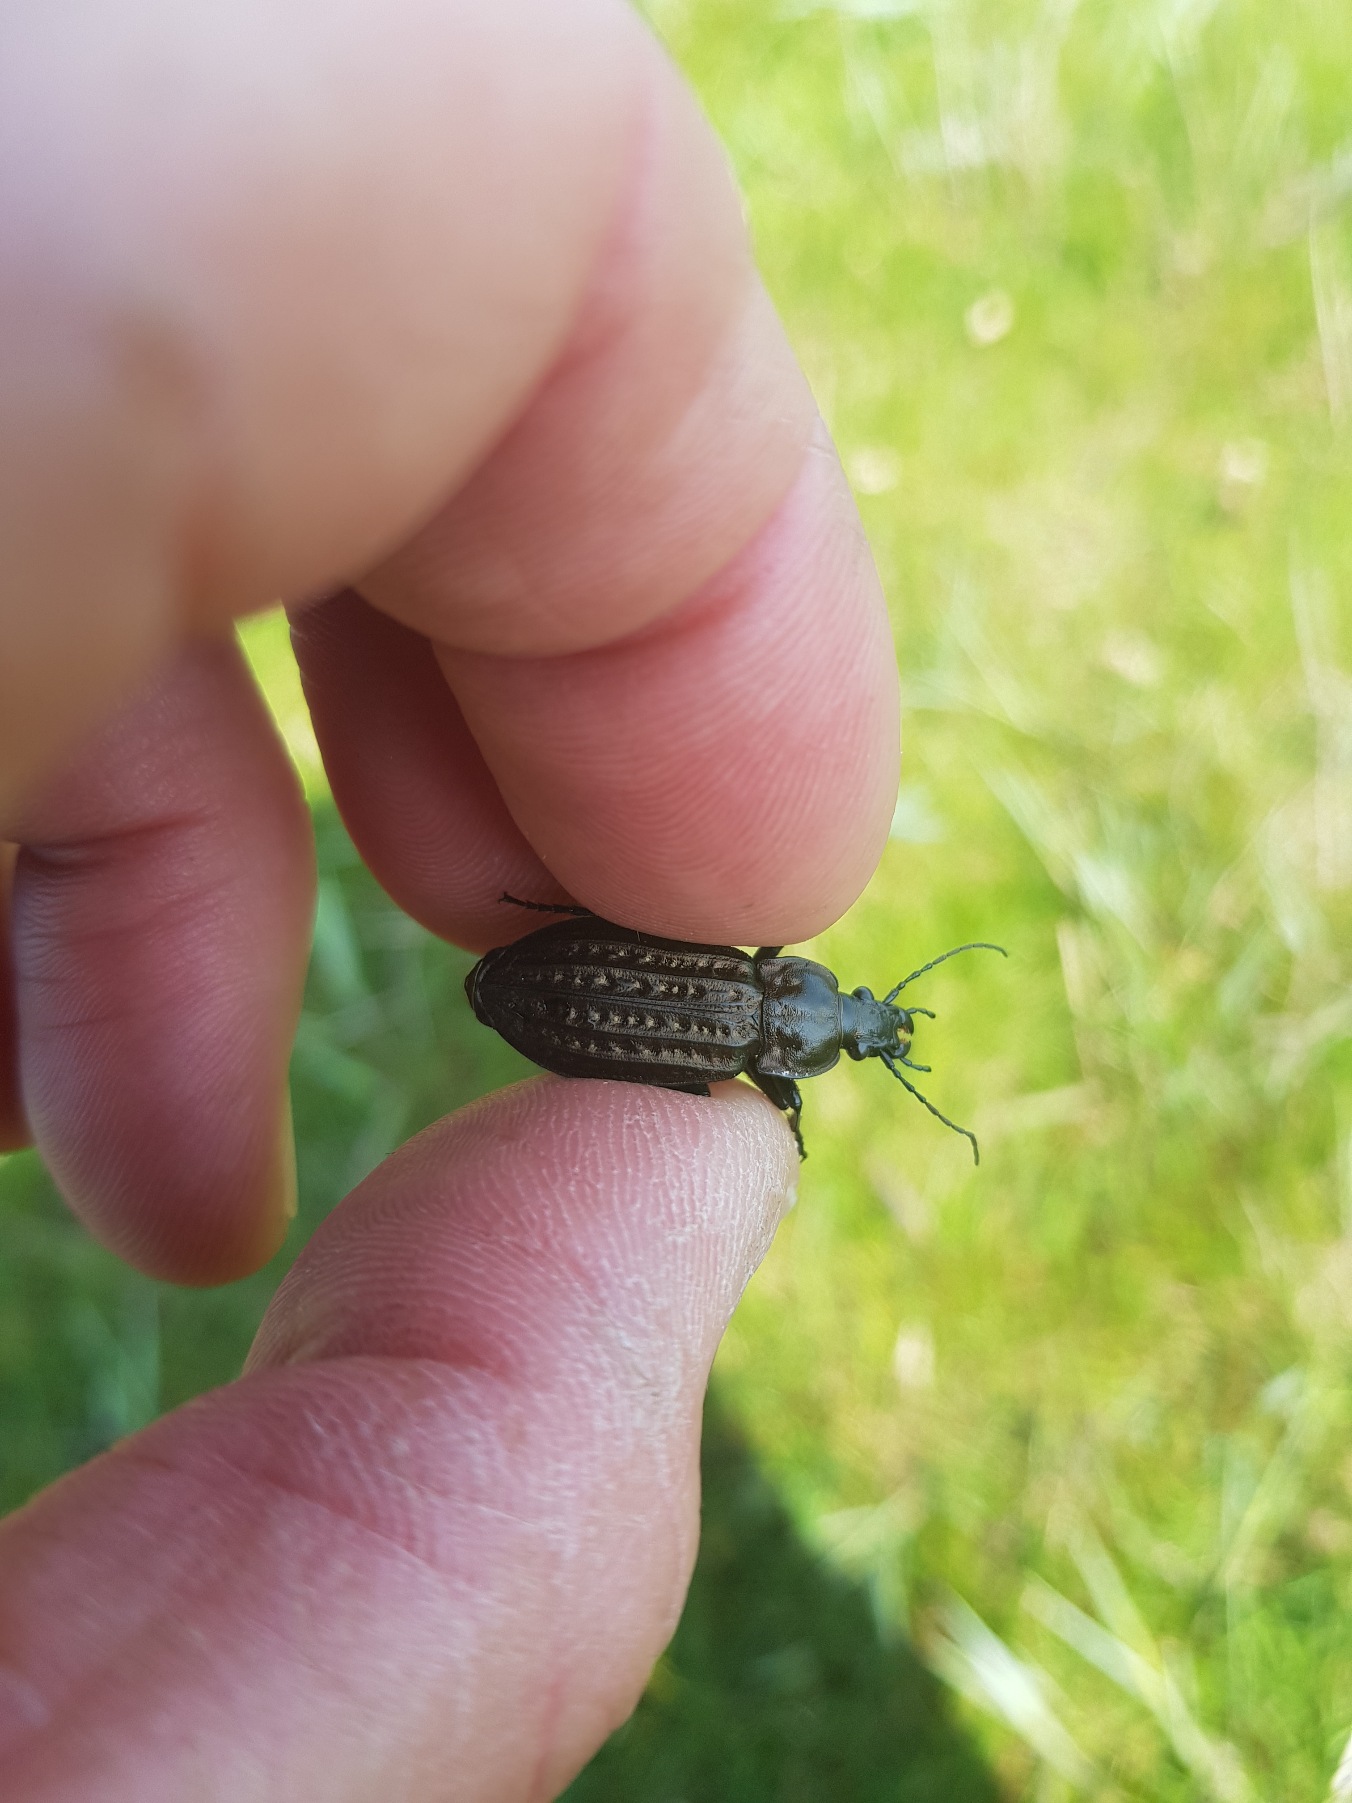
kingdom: Animalia
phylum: Arthropoda
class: Insecta
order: Coleoptera
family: Carabidae
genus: Carabus
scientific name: Carabus clatratus
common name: Dyndløber
